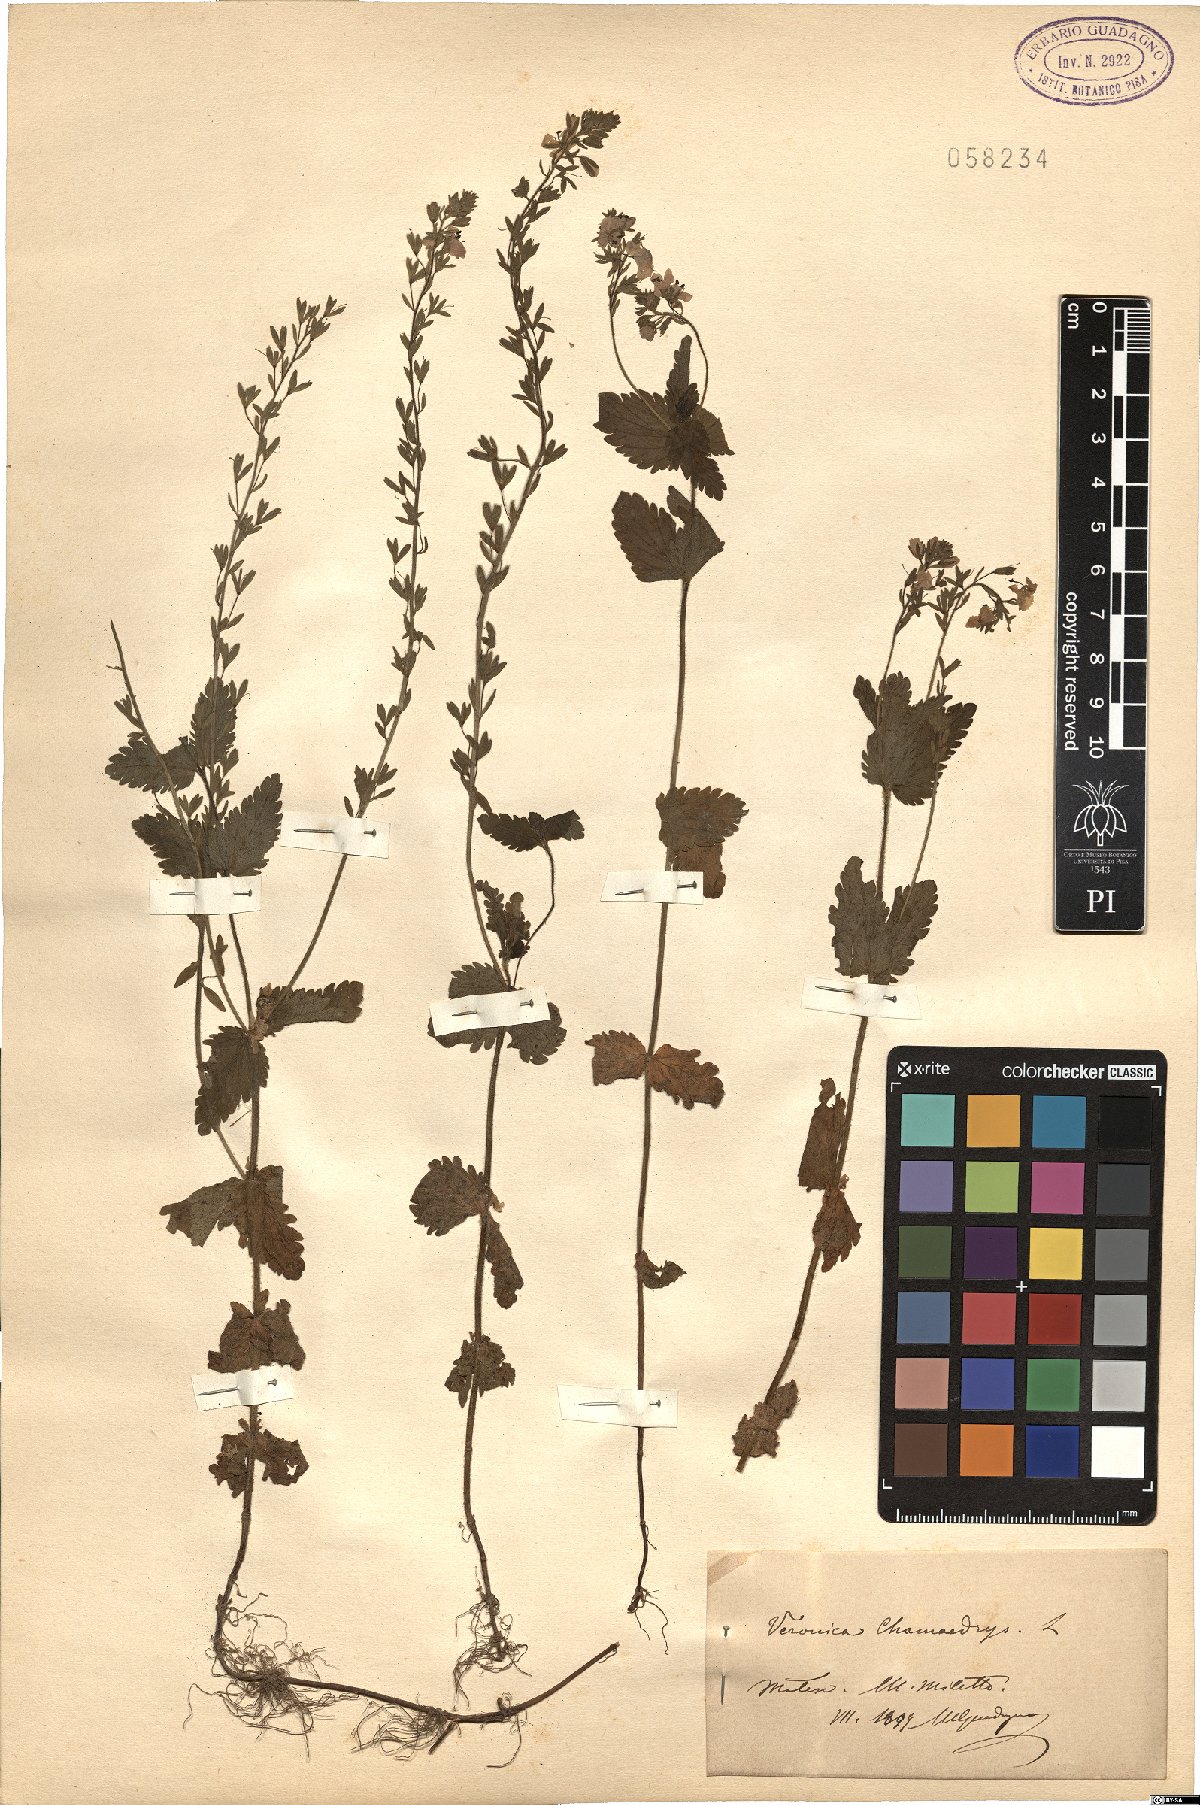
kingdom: Plantae
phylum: Tracheophyta
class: Magnoliopsida
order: Lamiales
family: Plantaginaceae
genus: Veronica
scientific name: Veronica chamaedrys
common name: Germander speedwell
